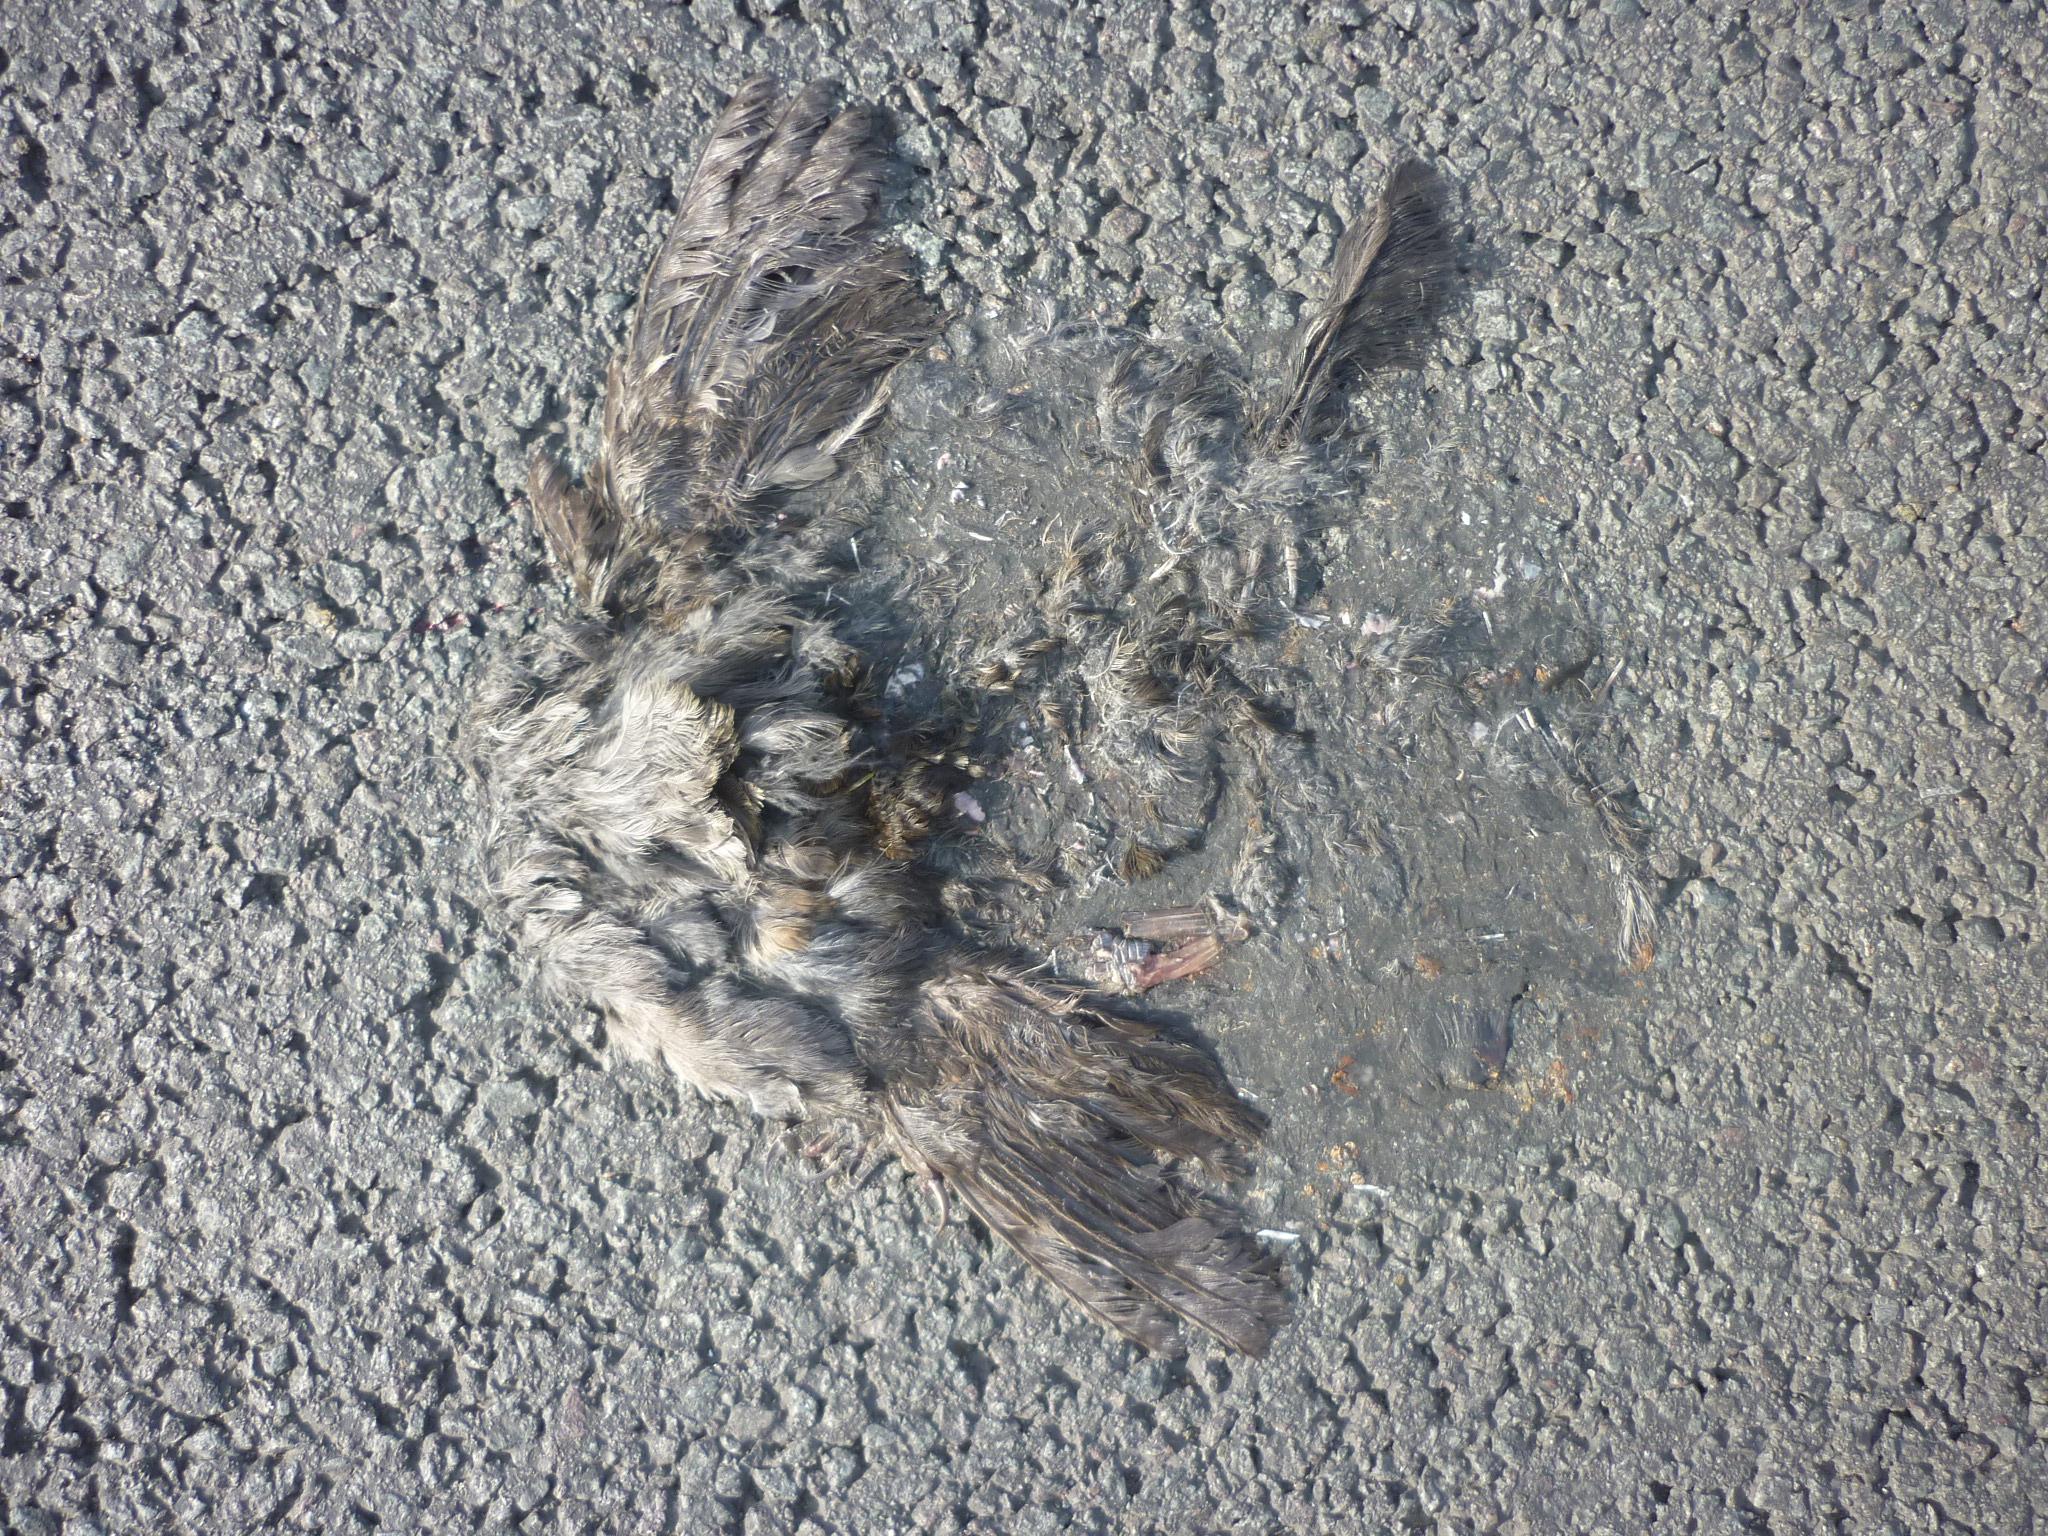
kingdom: Animalia
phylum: Chordata
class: Aves
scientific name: Aves
